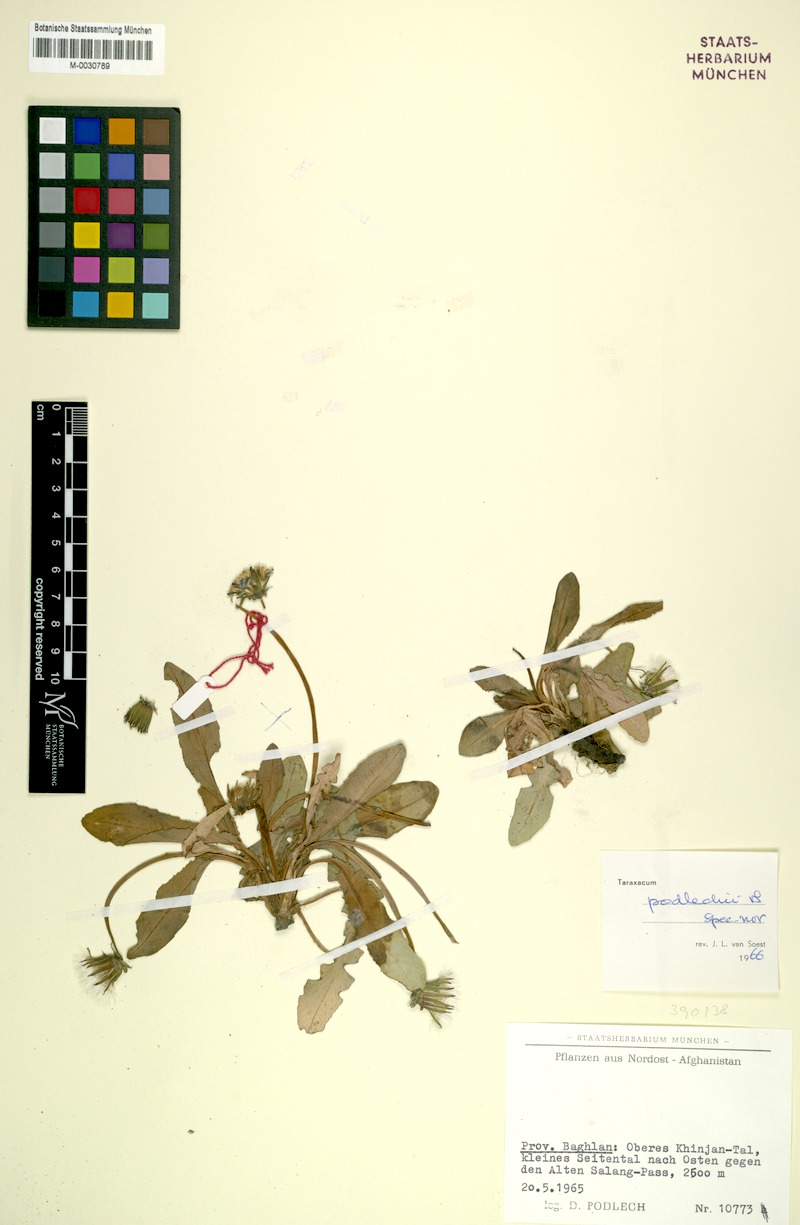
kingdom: Plantae
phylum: Tracheophyta
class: Magnoliopsida
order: Asterales
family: Asteraceae
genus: Taraxacum
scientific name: Taraxacum podlechii
